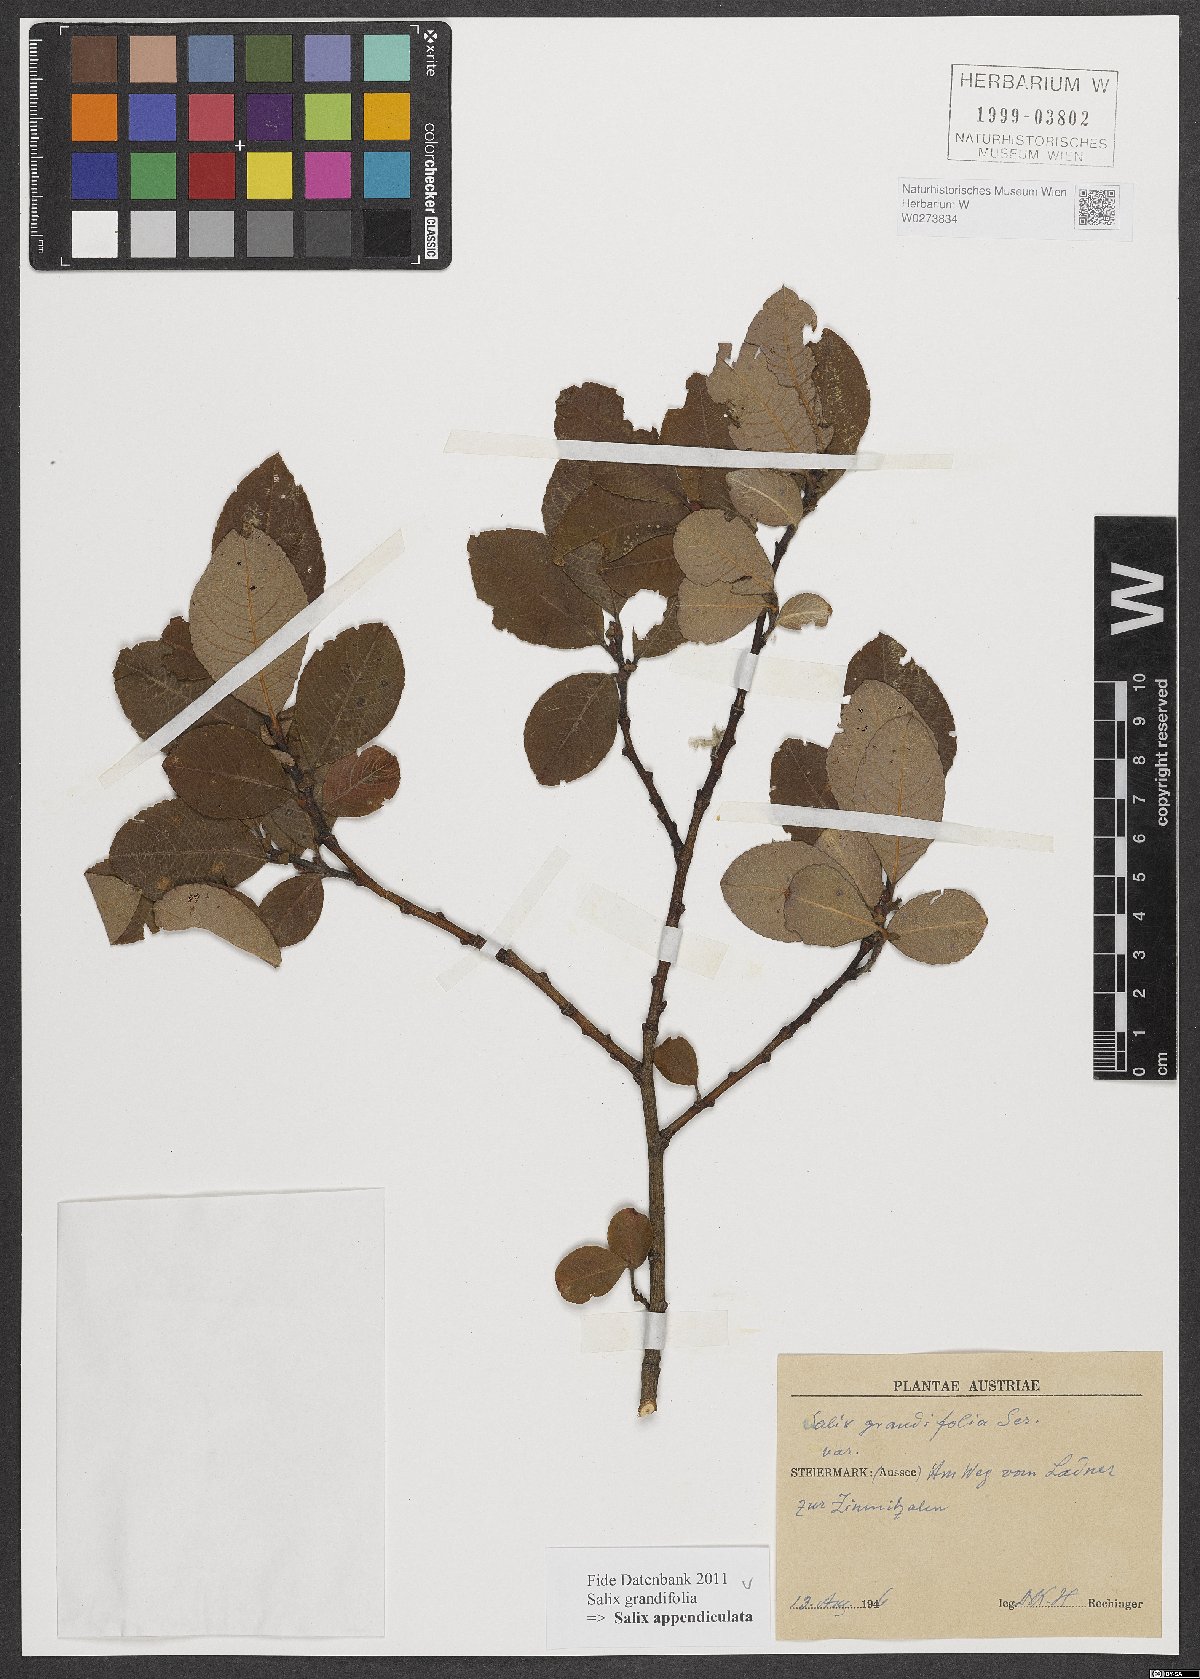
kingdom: Plantae
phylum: Tracheophyta
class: Magnoliopsida
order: Malpighiales
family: Salicaceae
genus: Salix
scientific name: Salix appendiculata
